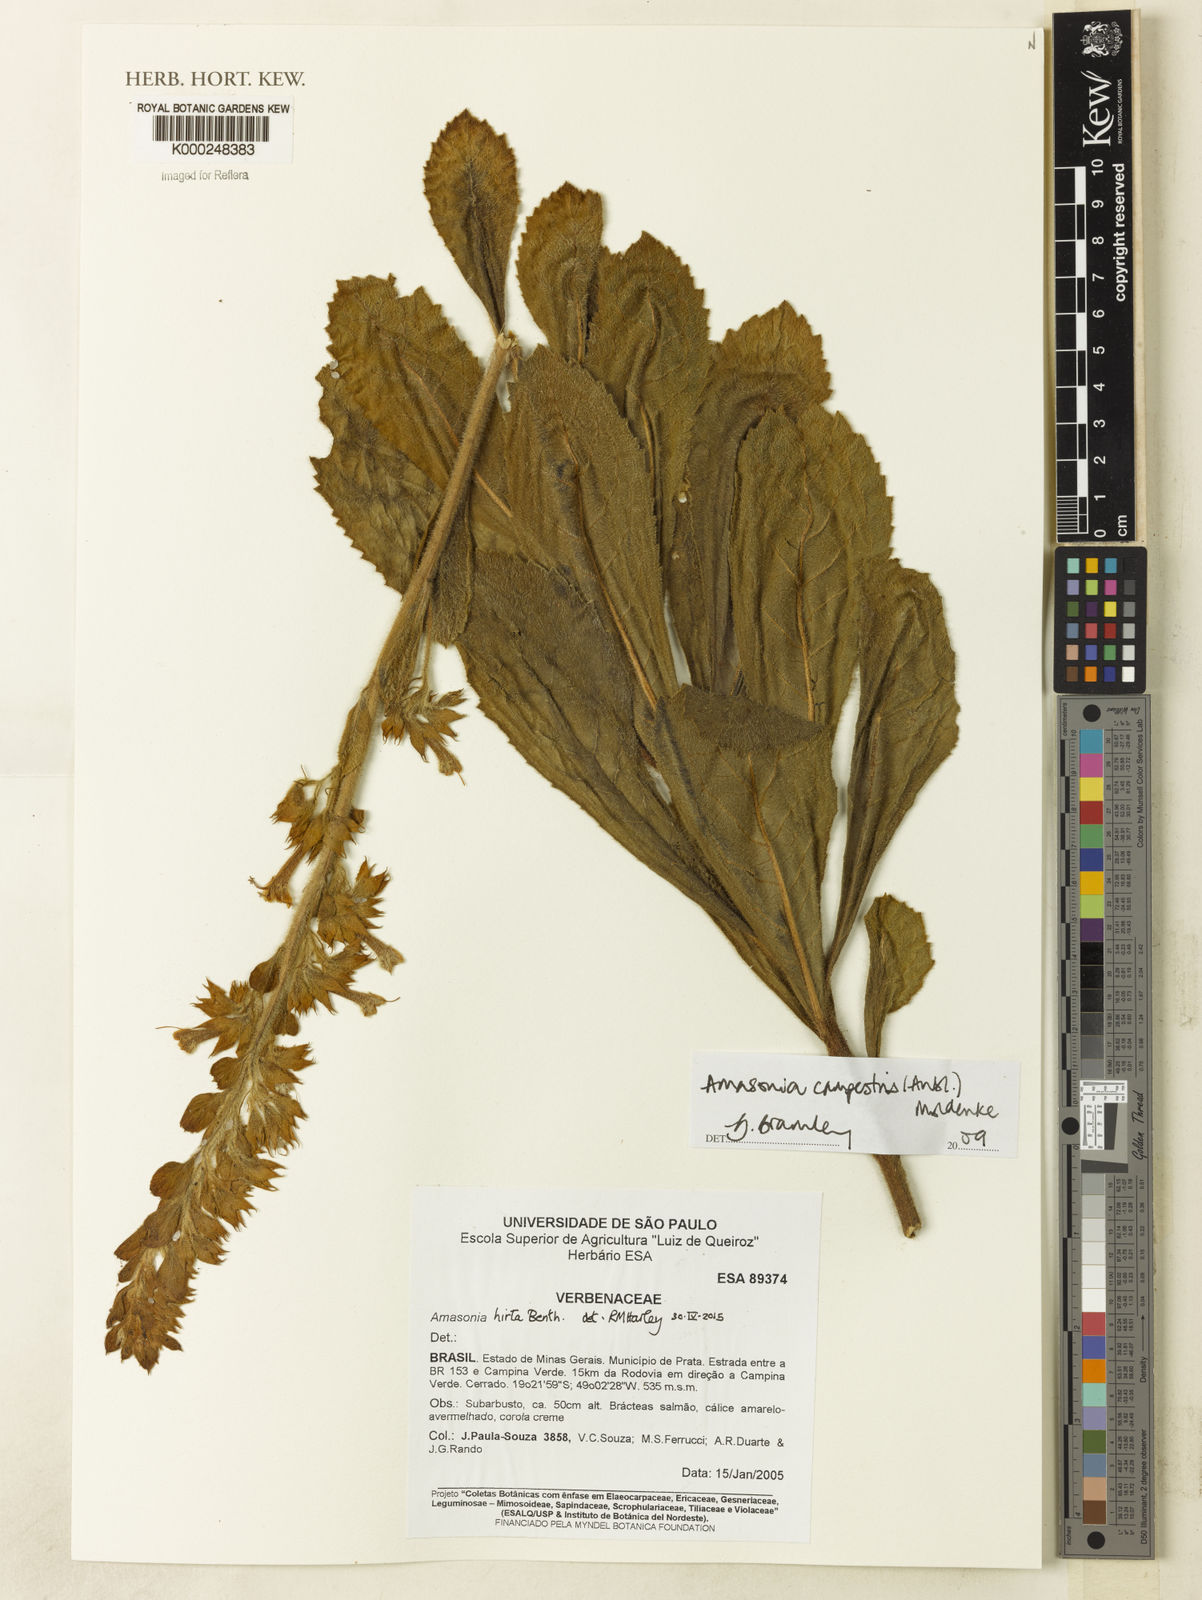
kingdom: Plantae
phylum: Tracheophyta
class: Magnoliopsida
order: Lamiales
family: Lamiaceae
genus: Amasonia
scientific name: Amasonia campestris
